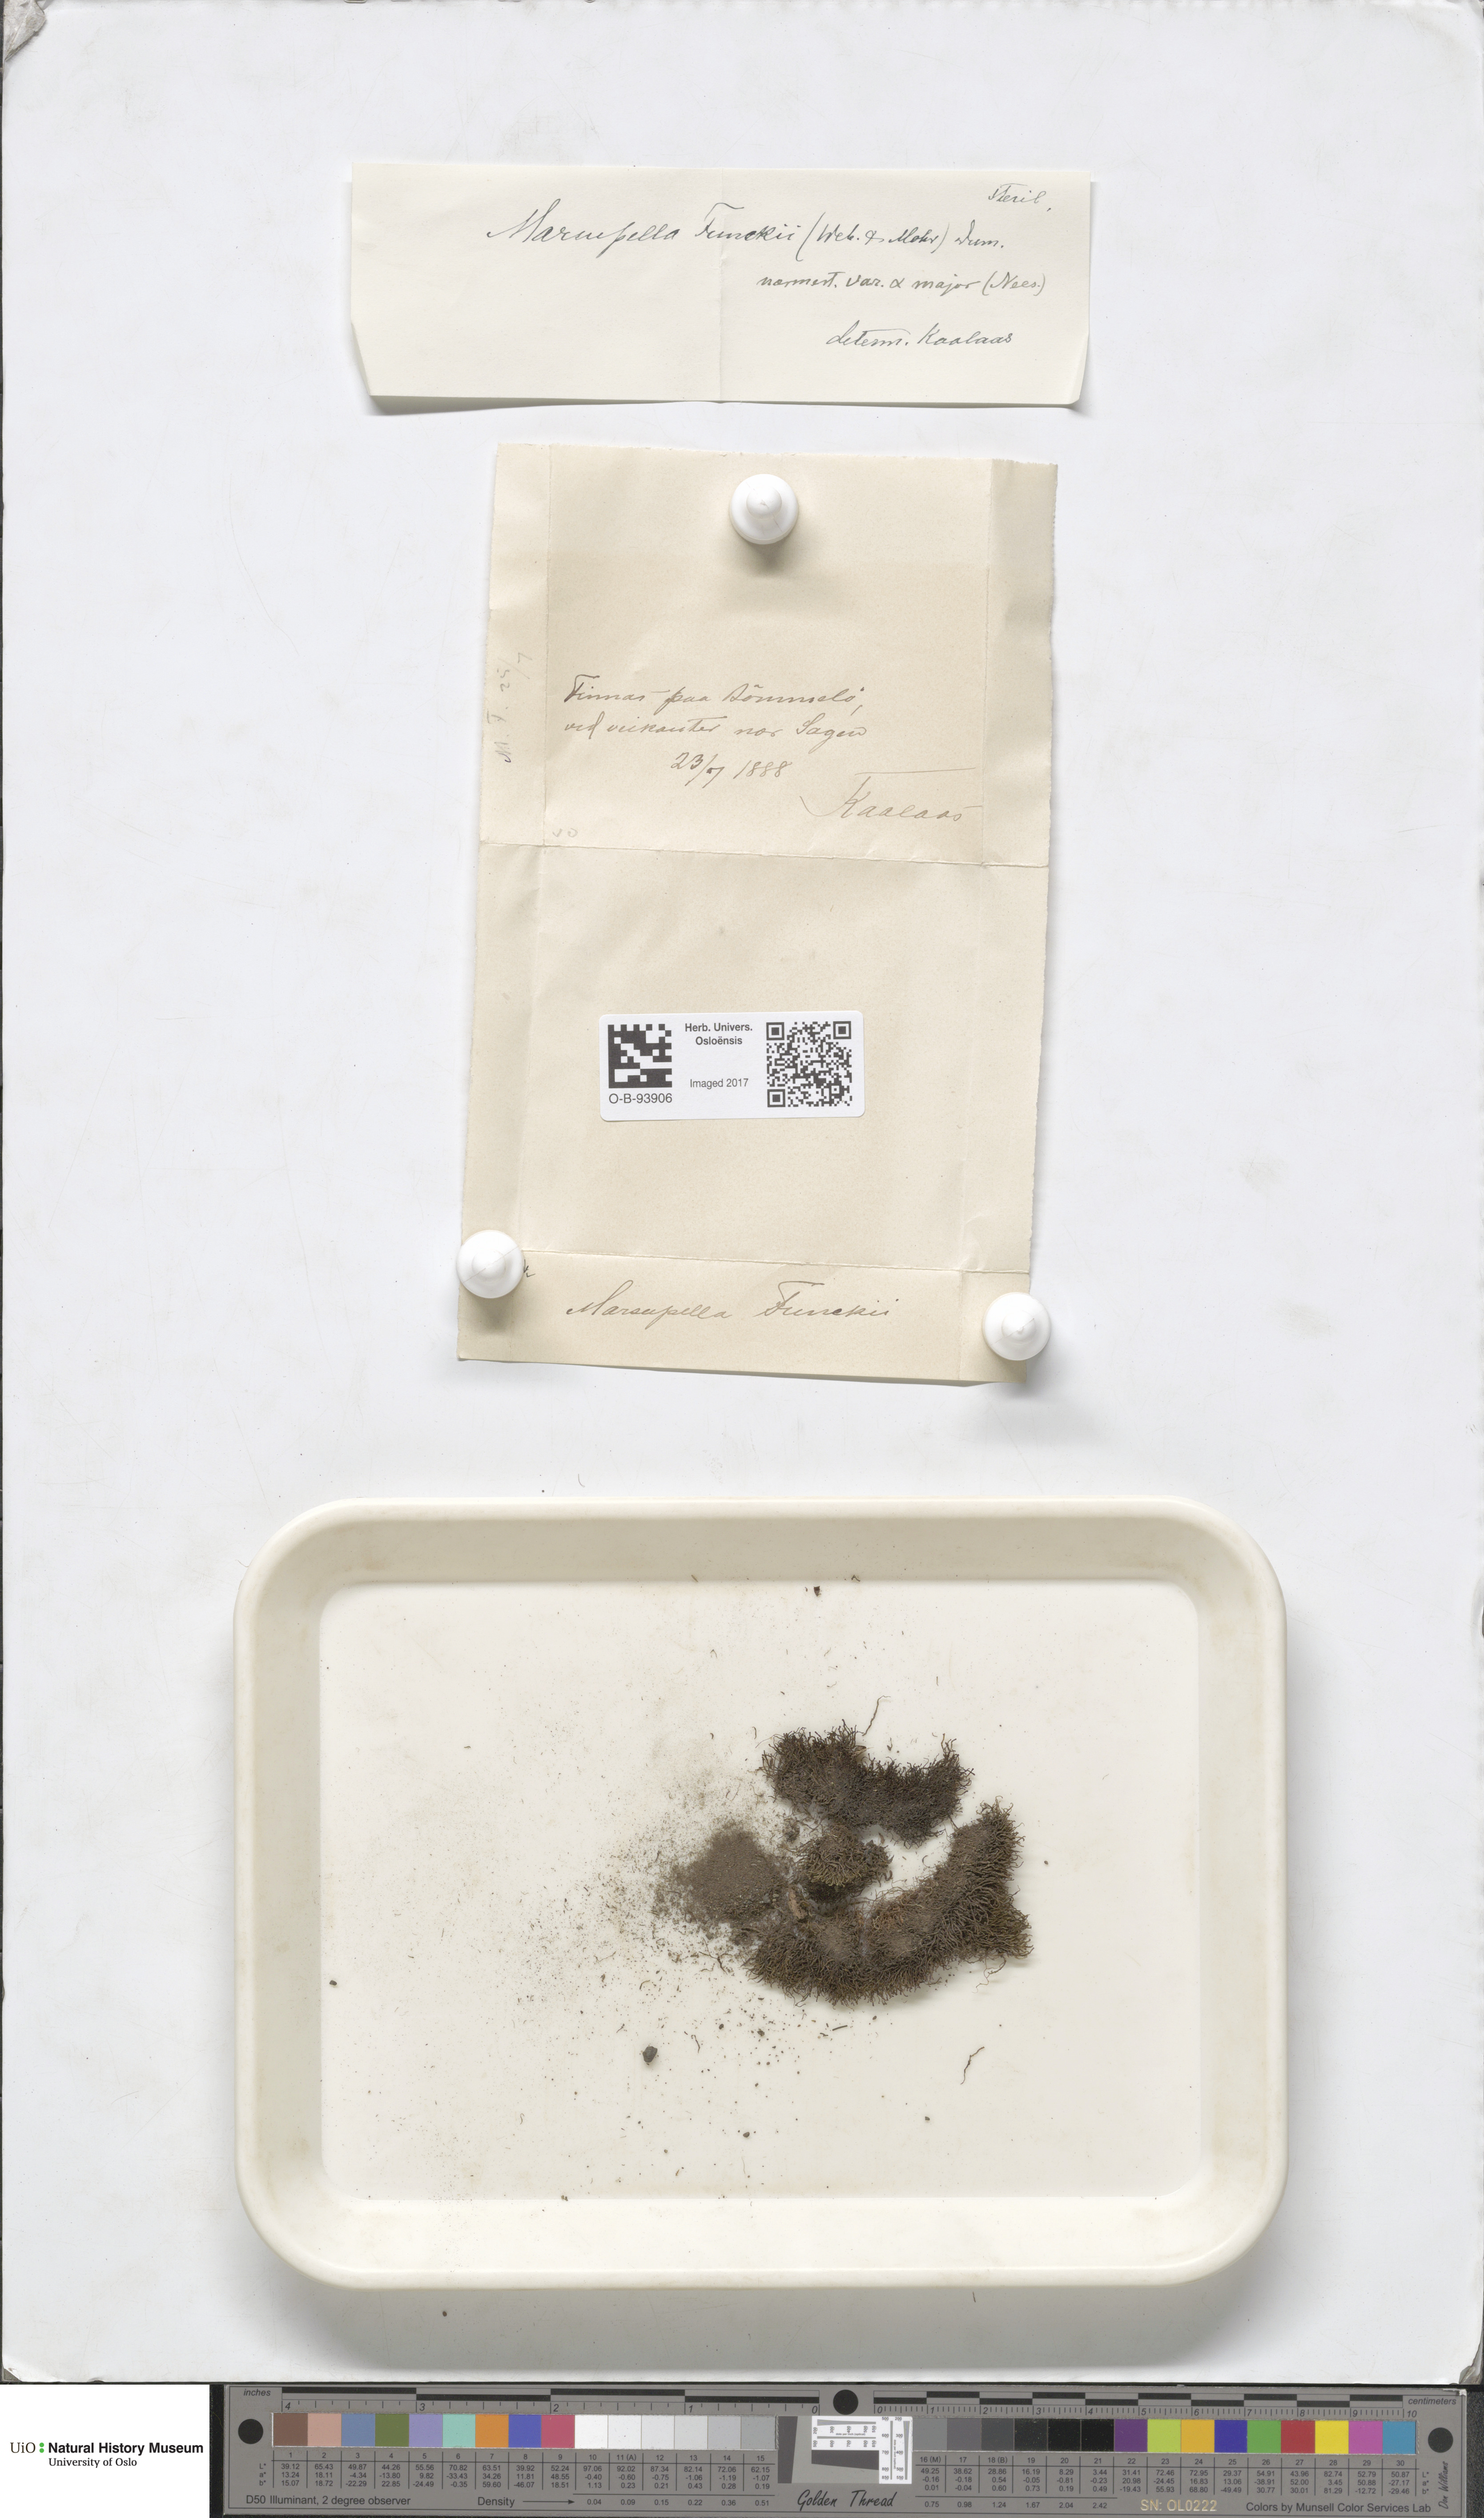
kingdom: Plantae
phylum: Marchantiophyta
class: Jungermanniopsida
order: Jungermanniales
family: Gymnomitriaceae
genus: Marsupella
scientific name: Marsupella funckii
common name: Funck's rustwort
